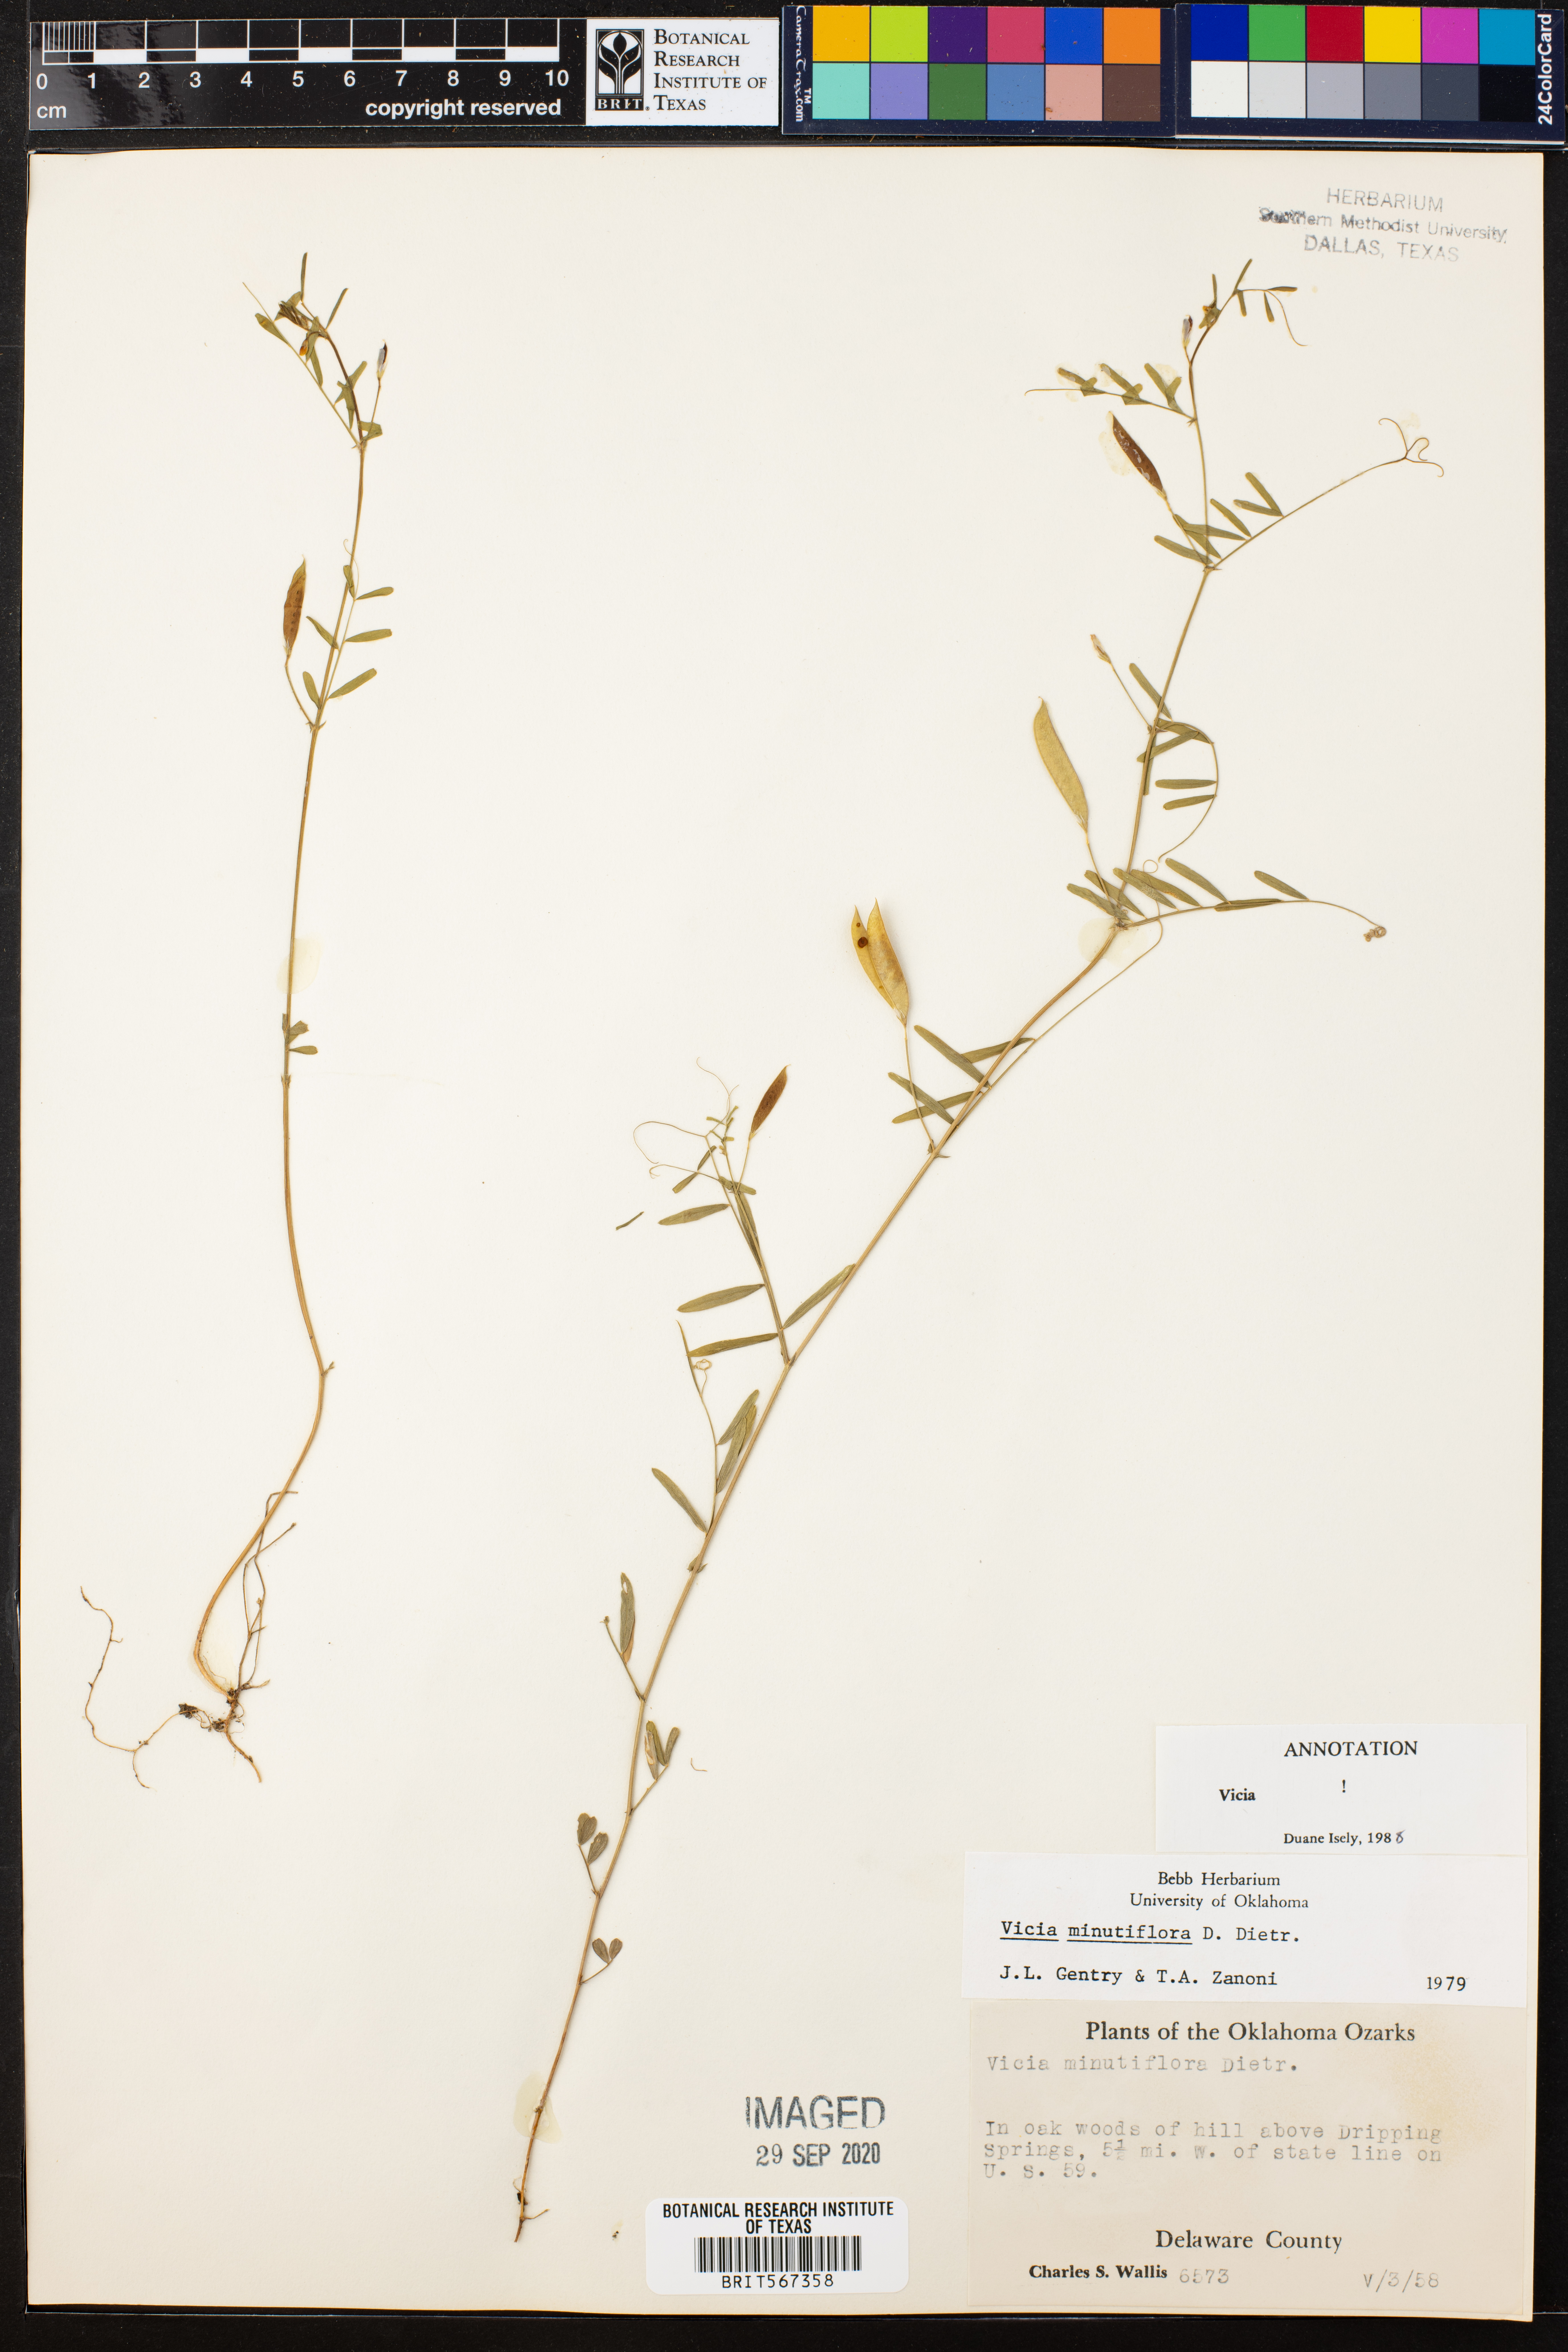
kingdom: Plantae
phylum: Tracheophyta
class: Magnoliopsida
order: Fabales
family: Fabaceae
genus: Vicia
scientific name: Vicia minutiflora
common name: Pygmy-flower vetch
